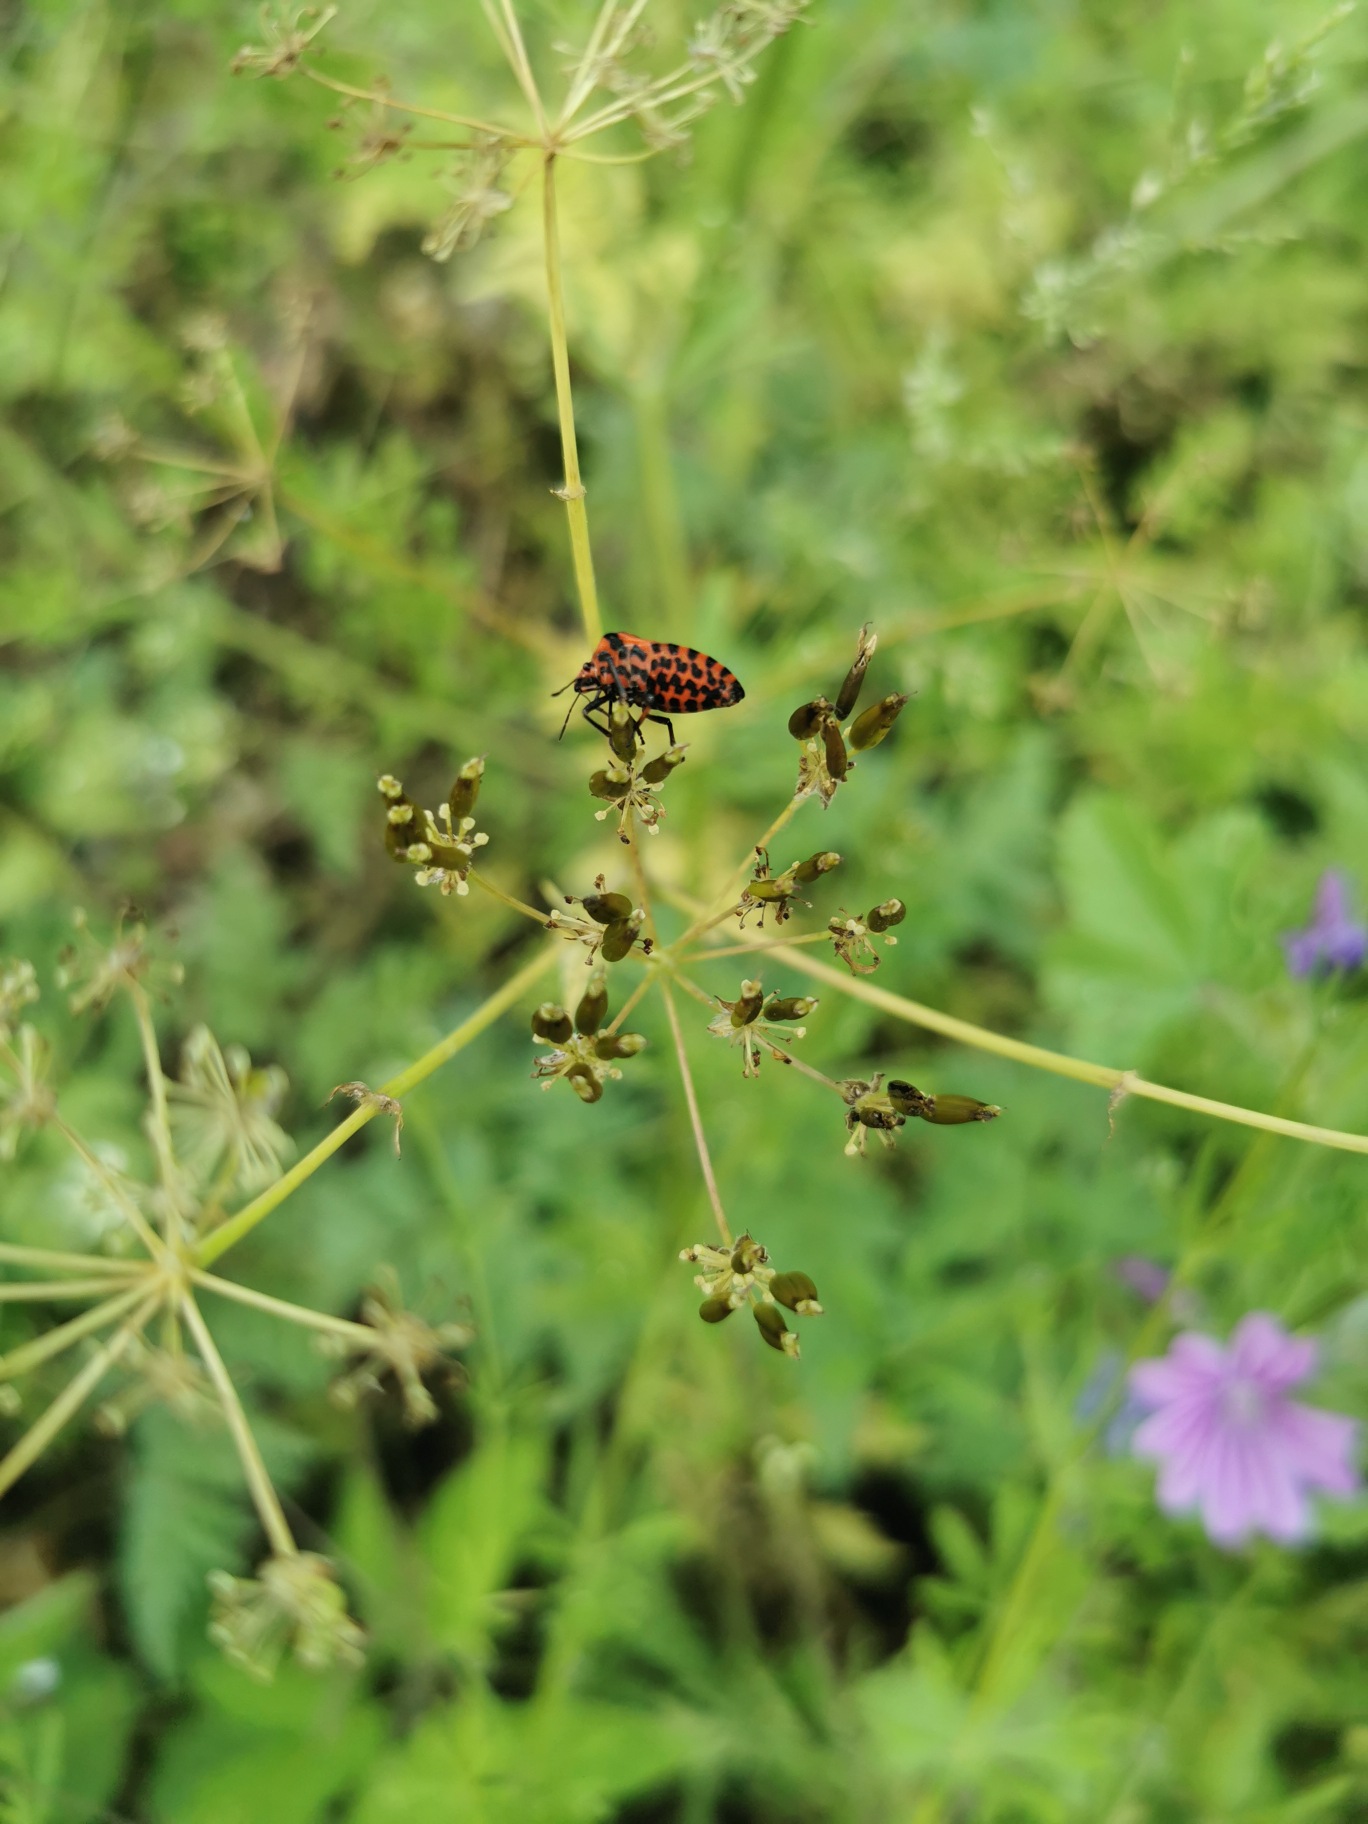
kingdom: Animalia
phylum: Arthropoda
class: Insecta
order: Hemiptera
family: Pentatomidae
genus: Graphosoma
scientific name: Graphosoma italicum
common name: Stribetæge
